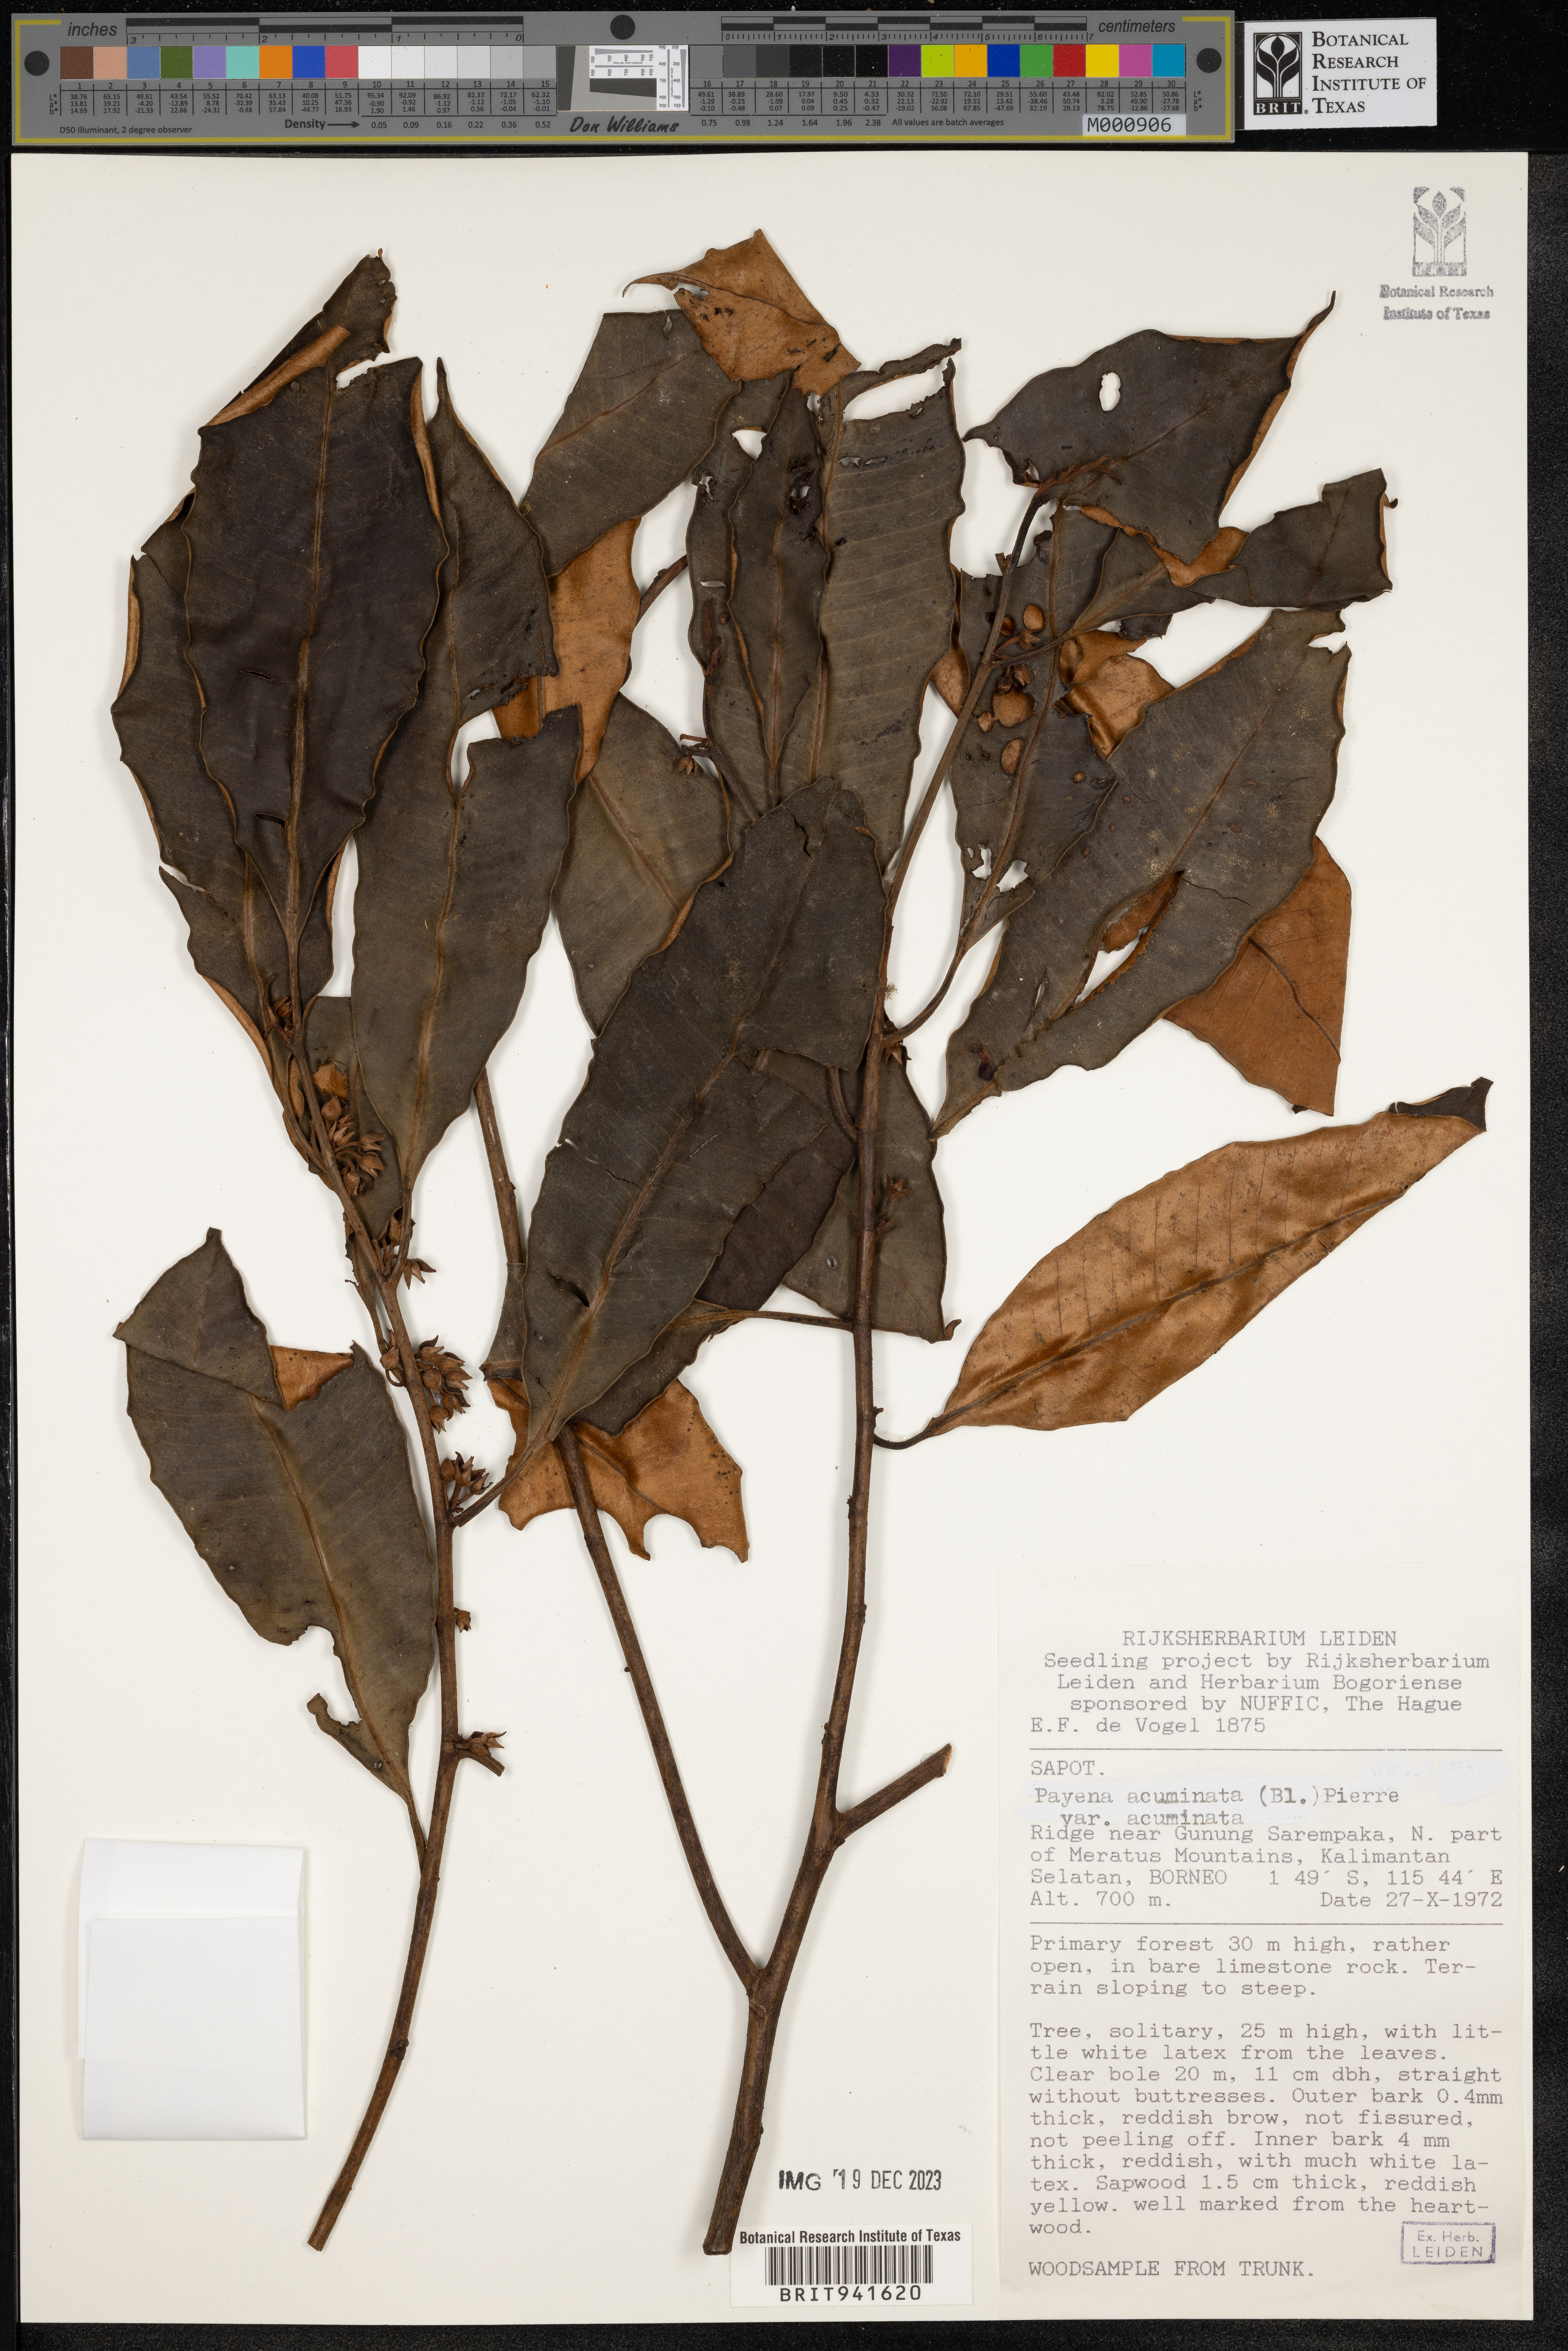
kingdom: Plantae
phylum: Tracheophyta
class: Magnoliopsida
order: Ericales
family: Sapotaceae
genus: Payena
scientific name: Payena
